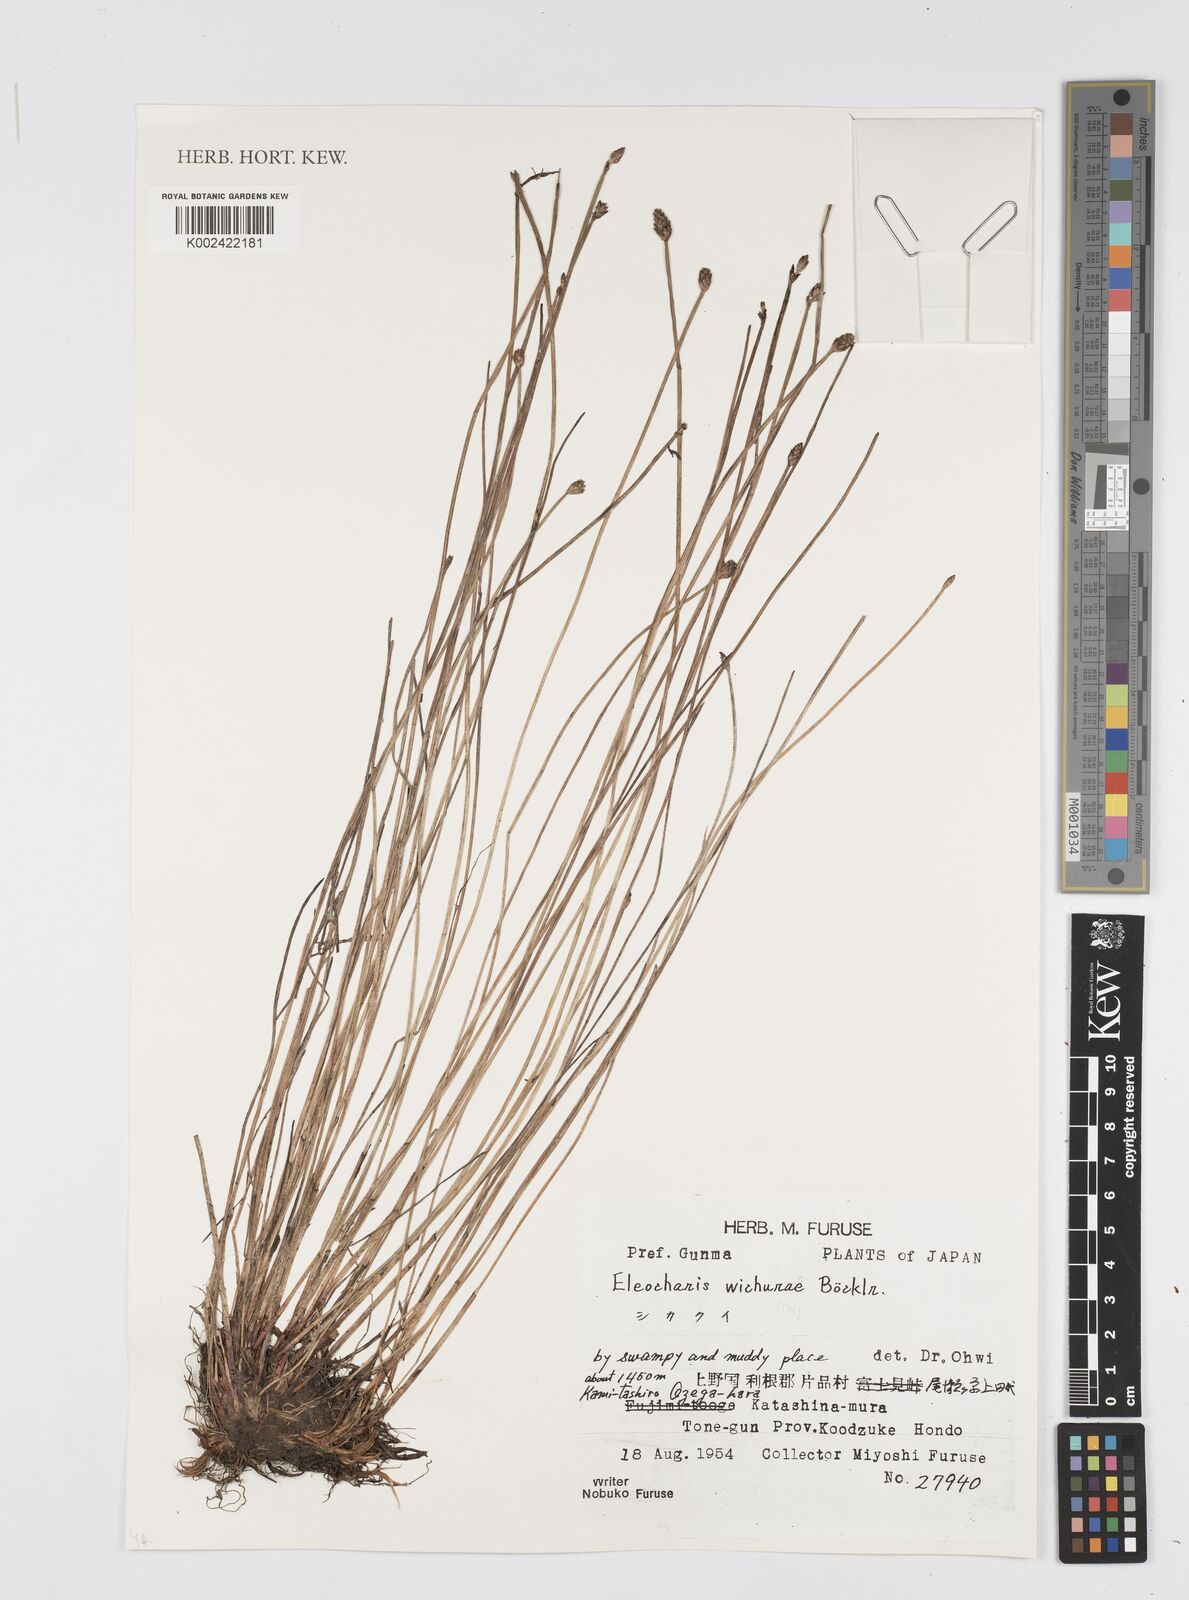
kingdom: Plantae
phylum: Tracheophyta
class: Liliopsida
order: Poales
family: Cyperaceae
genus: Eleocharis
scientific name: Eleocharis tetraquetra
